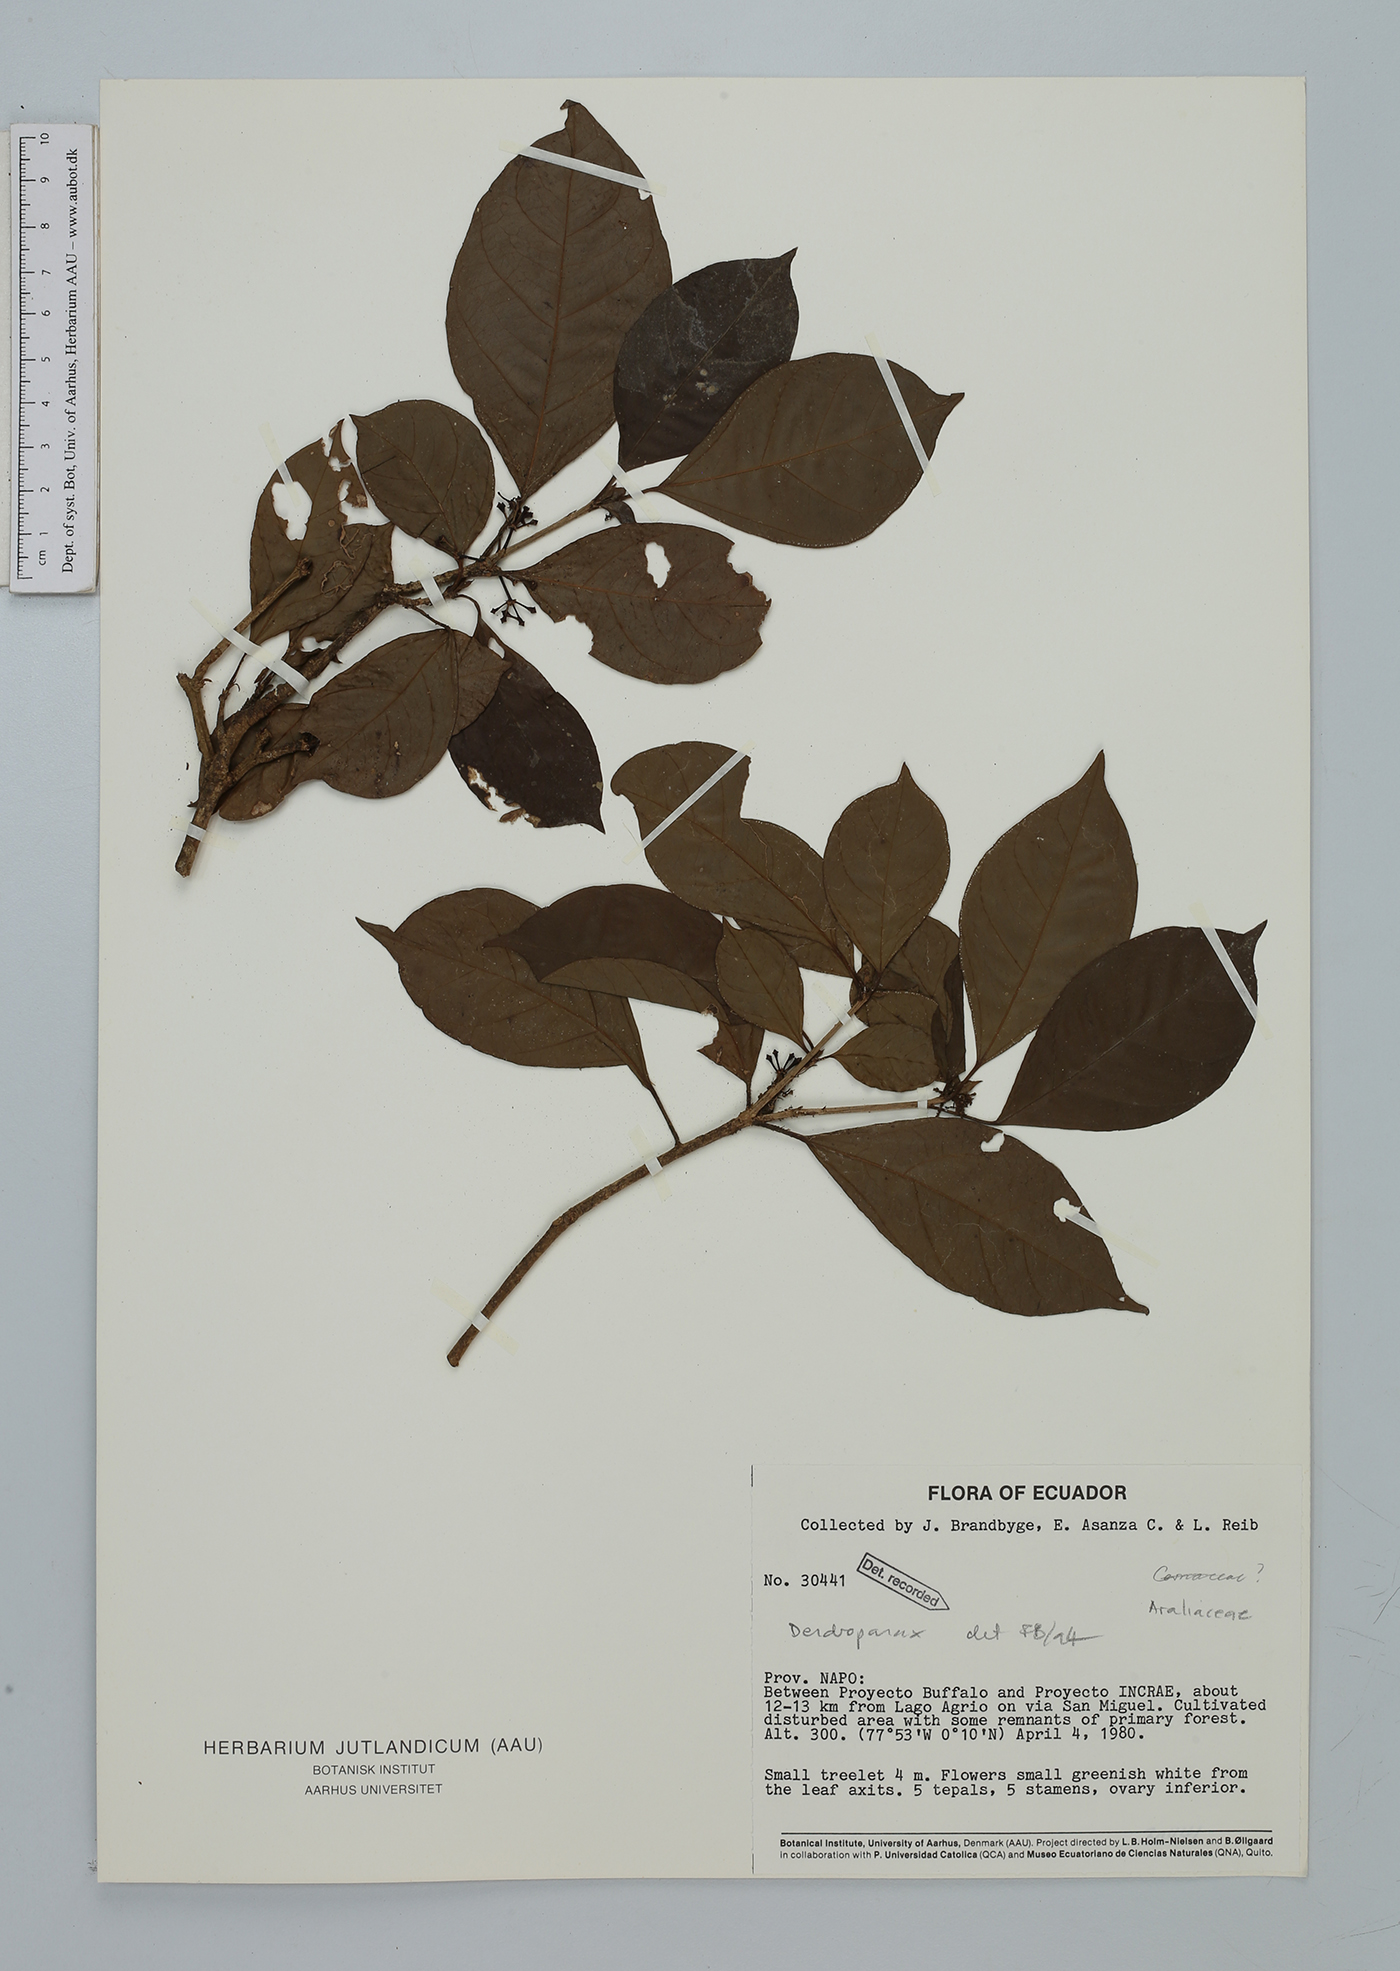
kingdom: Plantae
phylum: Tracheophyta
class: Magnoliopsida
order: Apiales
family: Araliaceae
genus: Dendropanax
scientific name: Dendropanax
